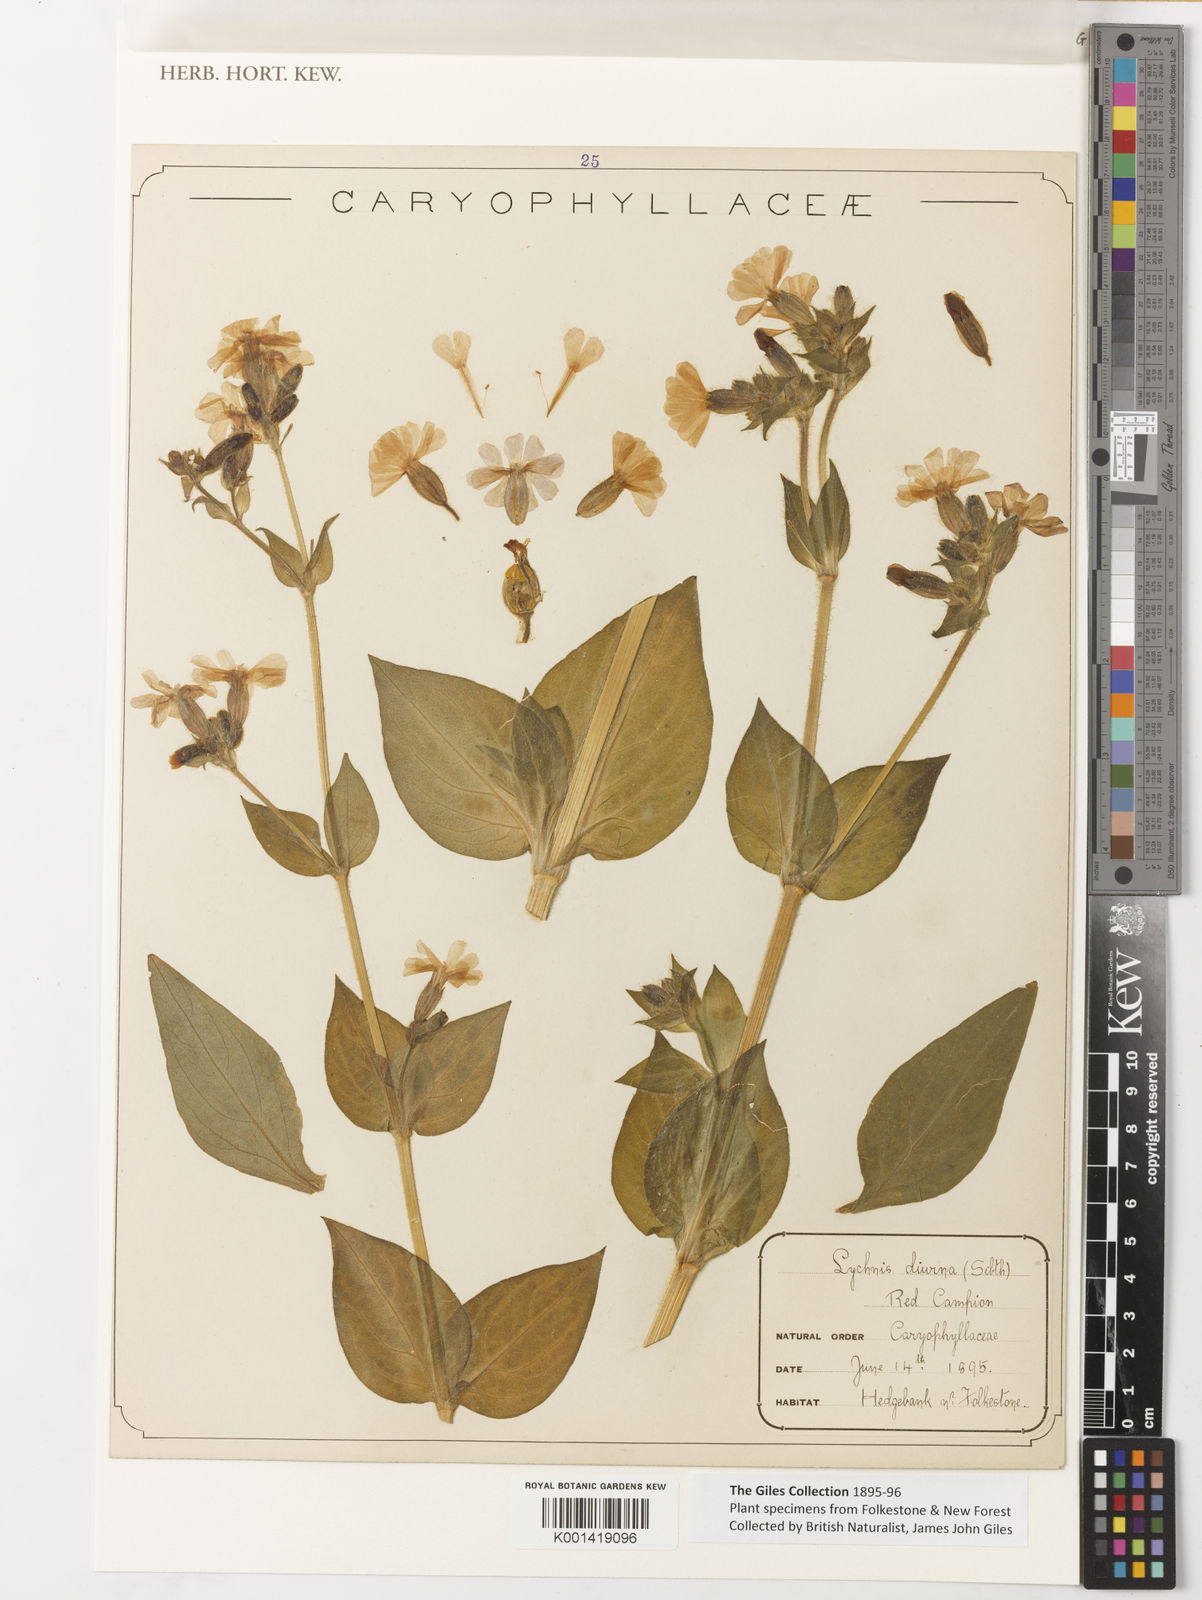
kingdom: Plantae
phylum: Tracheophyta
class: Magnoliopsida
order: Caryophyllales
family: Caryophyllaceae
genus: Silene
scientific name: Silene
